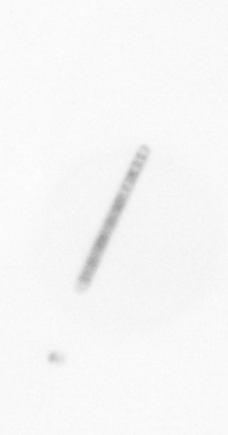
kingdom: Chromista
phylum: Ochrophyta
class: Bacillariophyceae
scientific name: Bacillariophyceae
